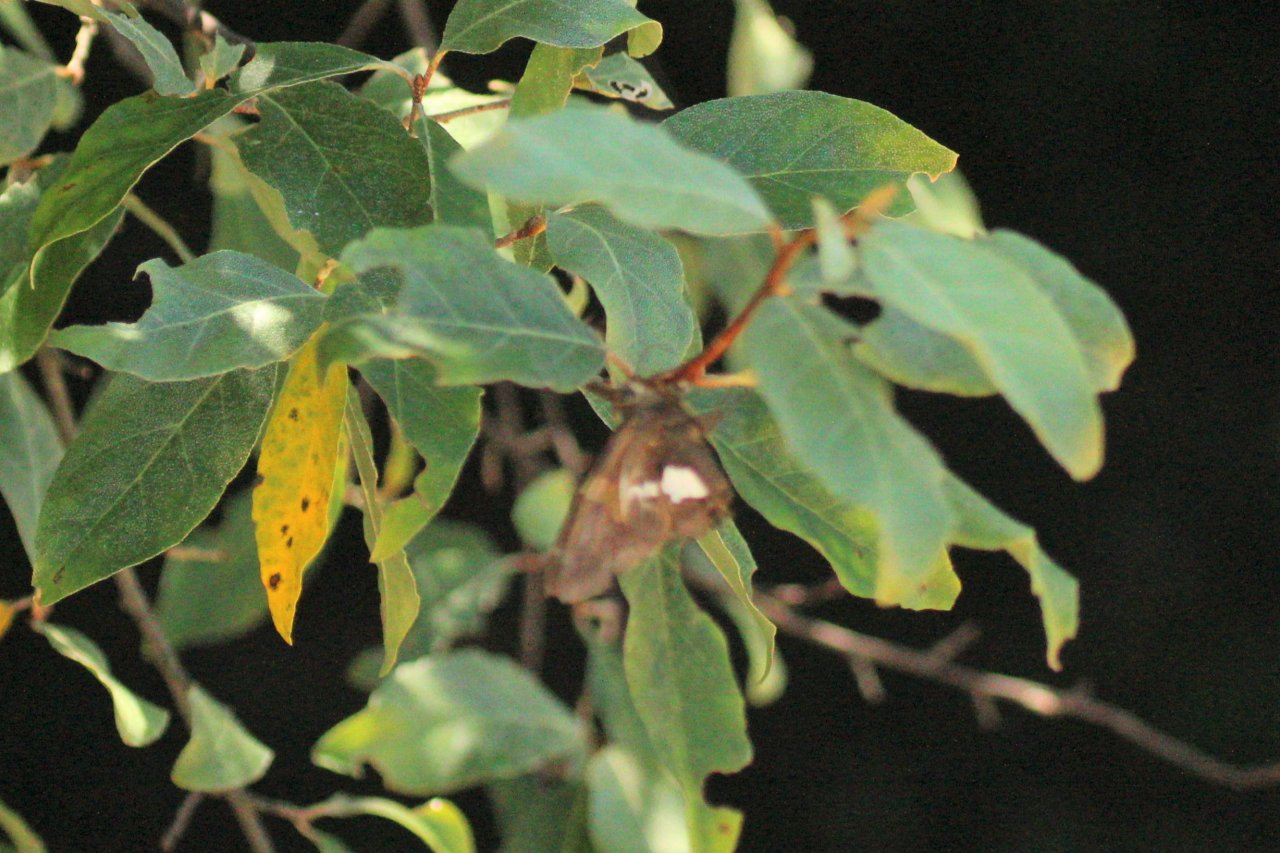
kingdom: Animalia
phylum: Arthropoda
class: Insecta
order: Lepidoptera
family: Hesperiidae
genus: Epargyreus
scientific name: Epargyreus clarus
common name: Silver-spotted Skipper
